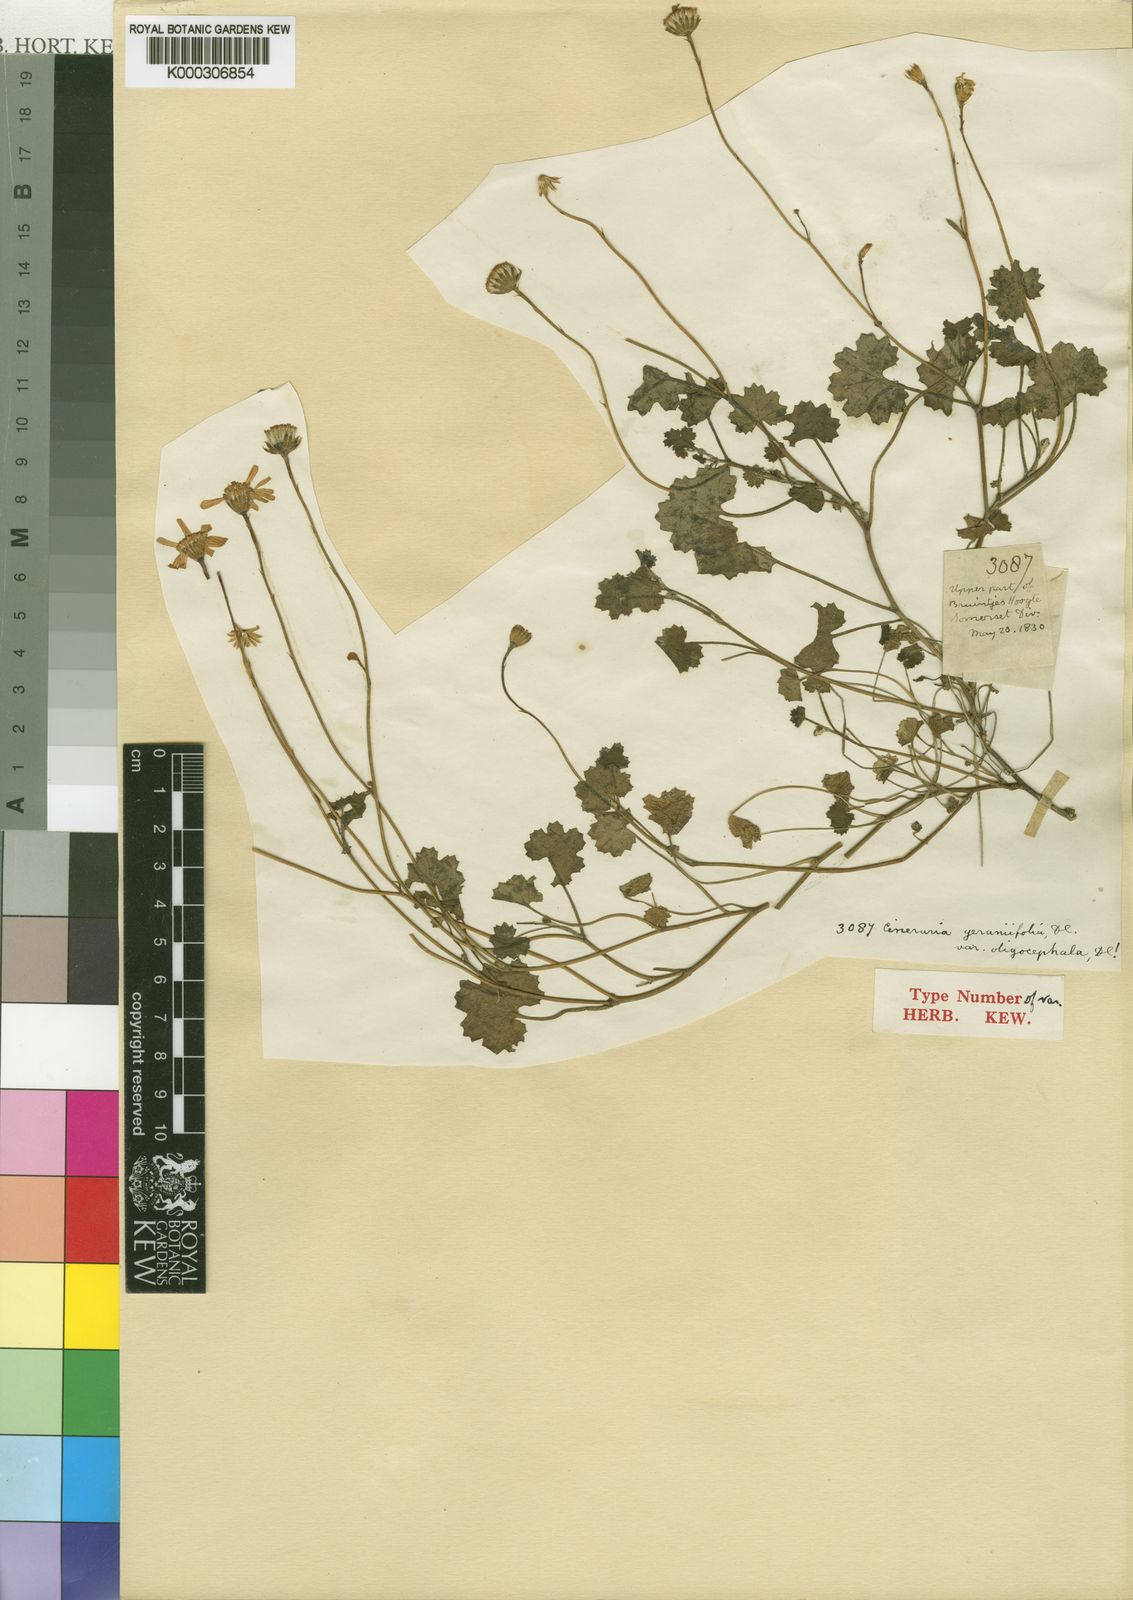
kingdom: Plantae
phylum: Tracheophyta
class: Magnoliopsida
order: Asterales
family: Asteraceae
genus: Cineraria
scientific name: Cineraria geraniifolia
